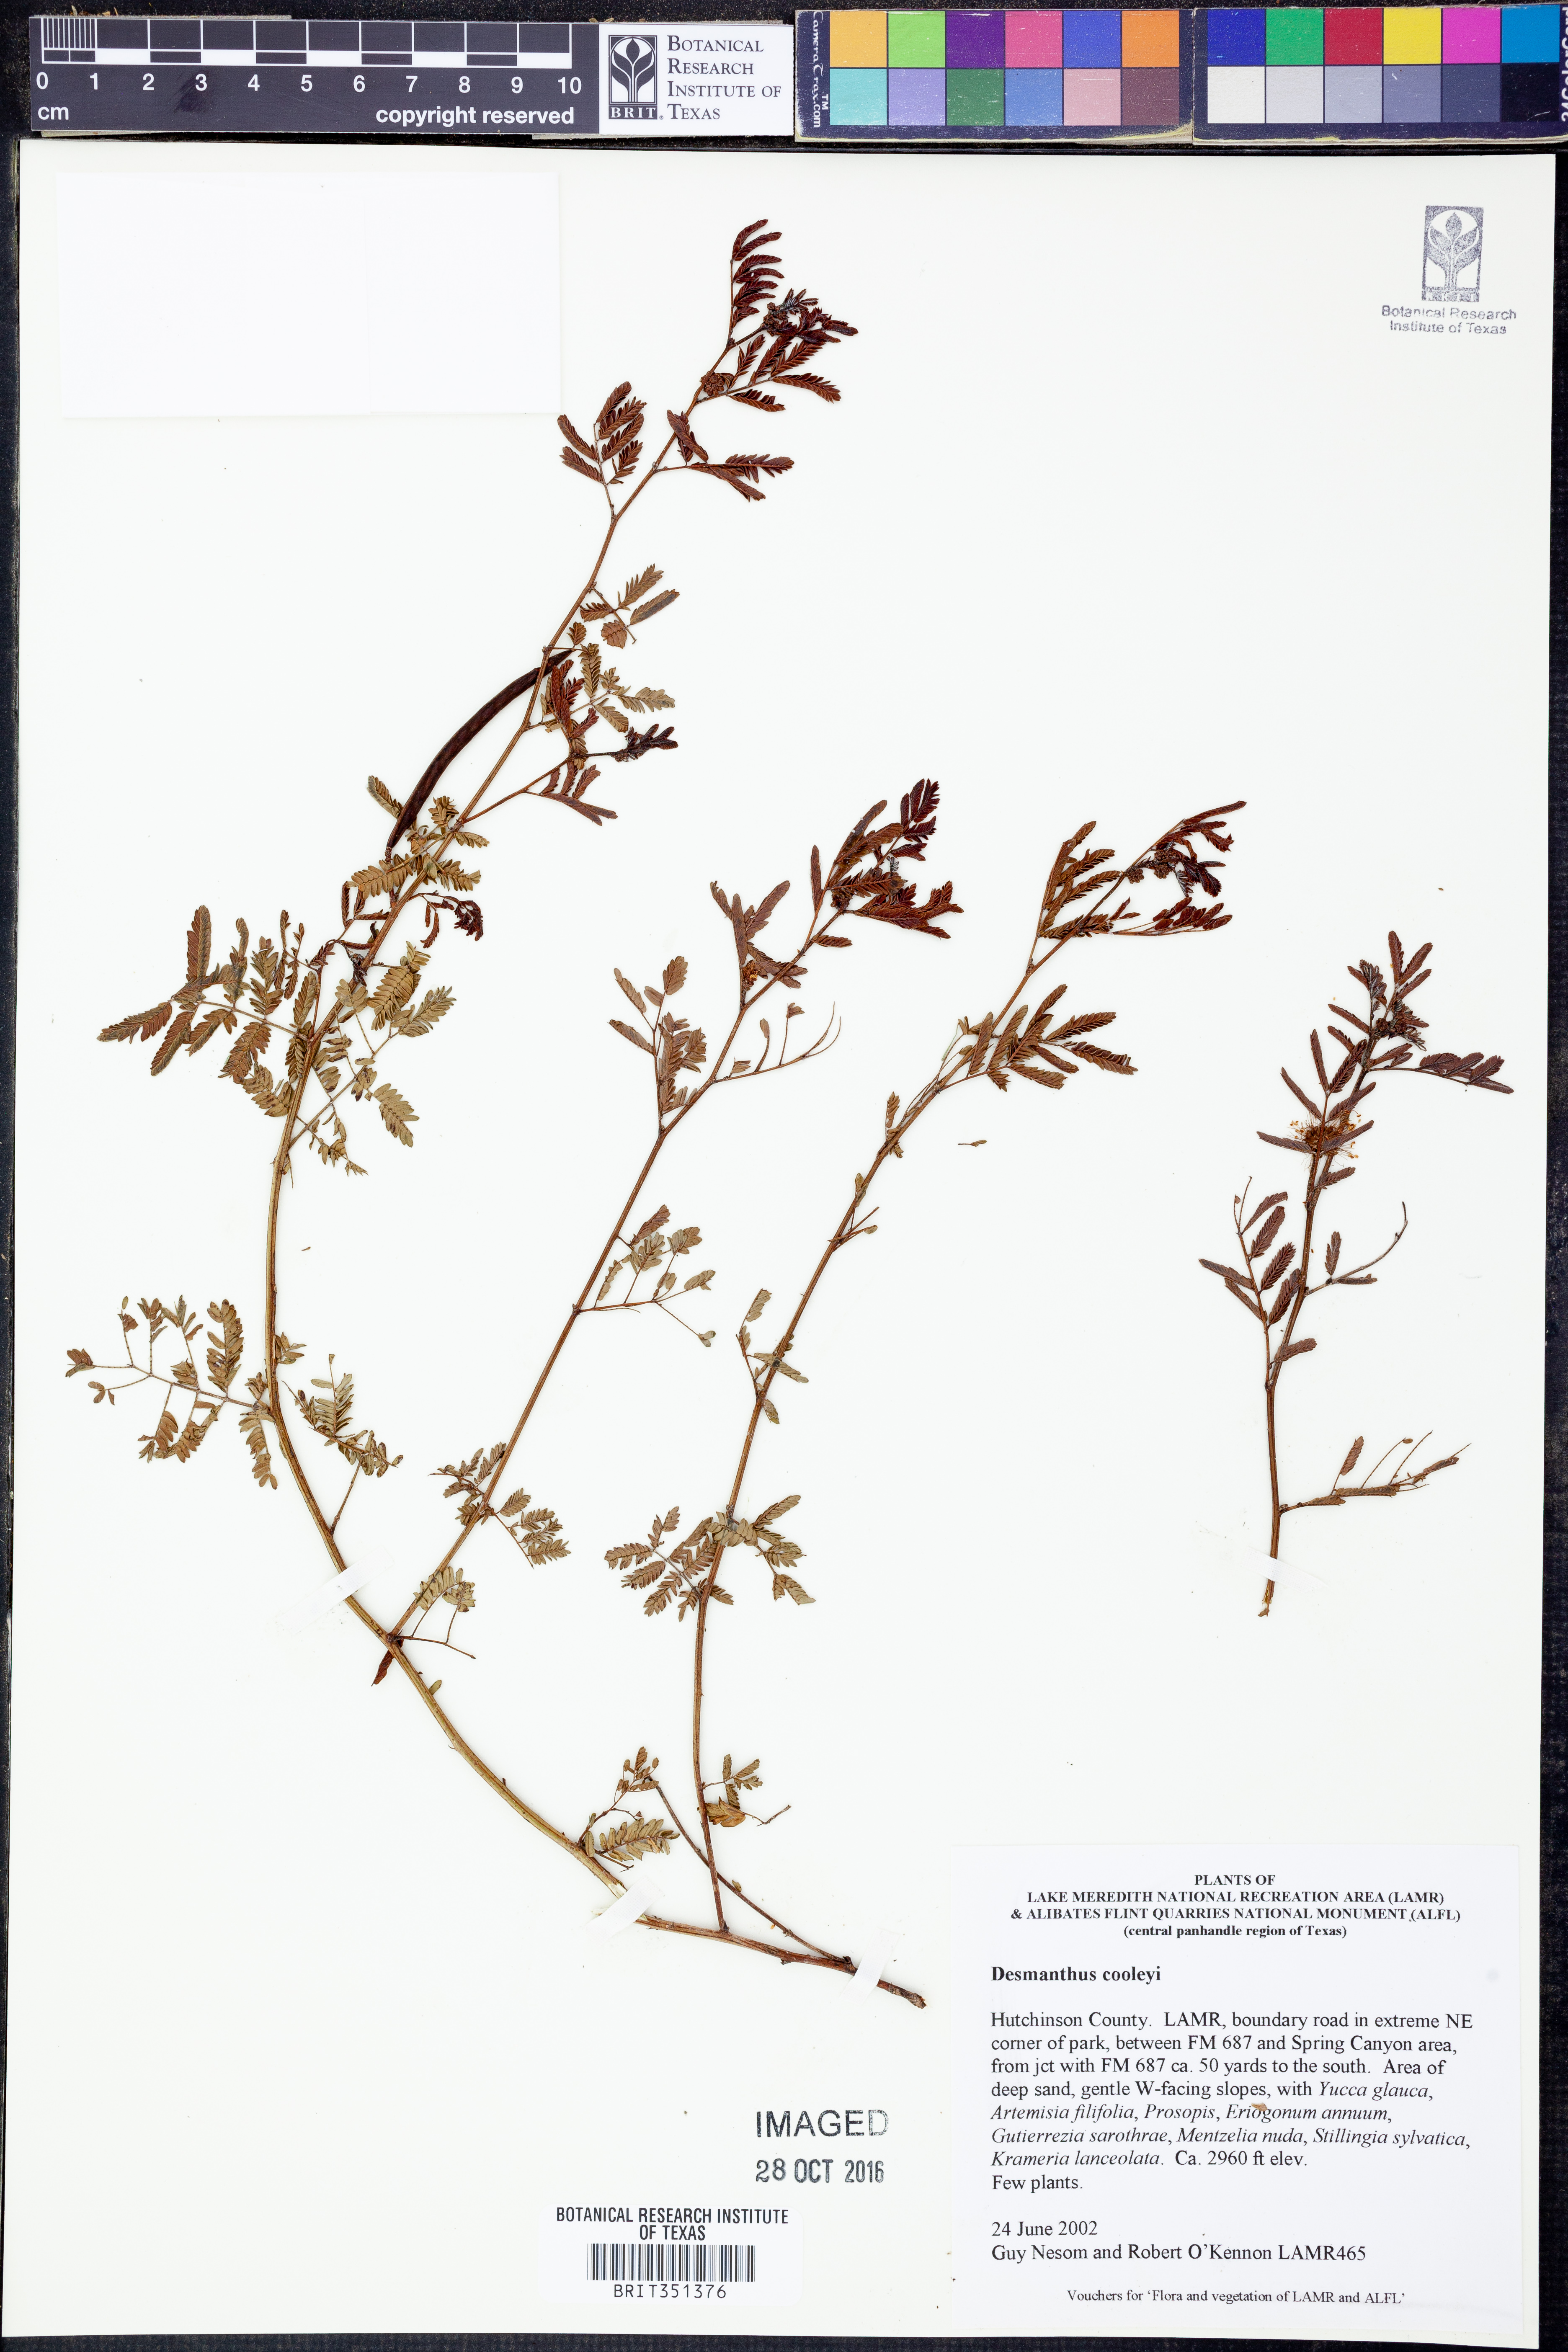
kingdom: Plantae
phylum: Tracheophyta
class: Magnoliopsida
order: Fabales
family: Fabaceae
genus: Desmanthus
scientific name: Desmanthus cooleyi
